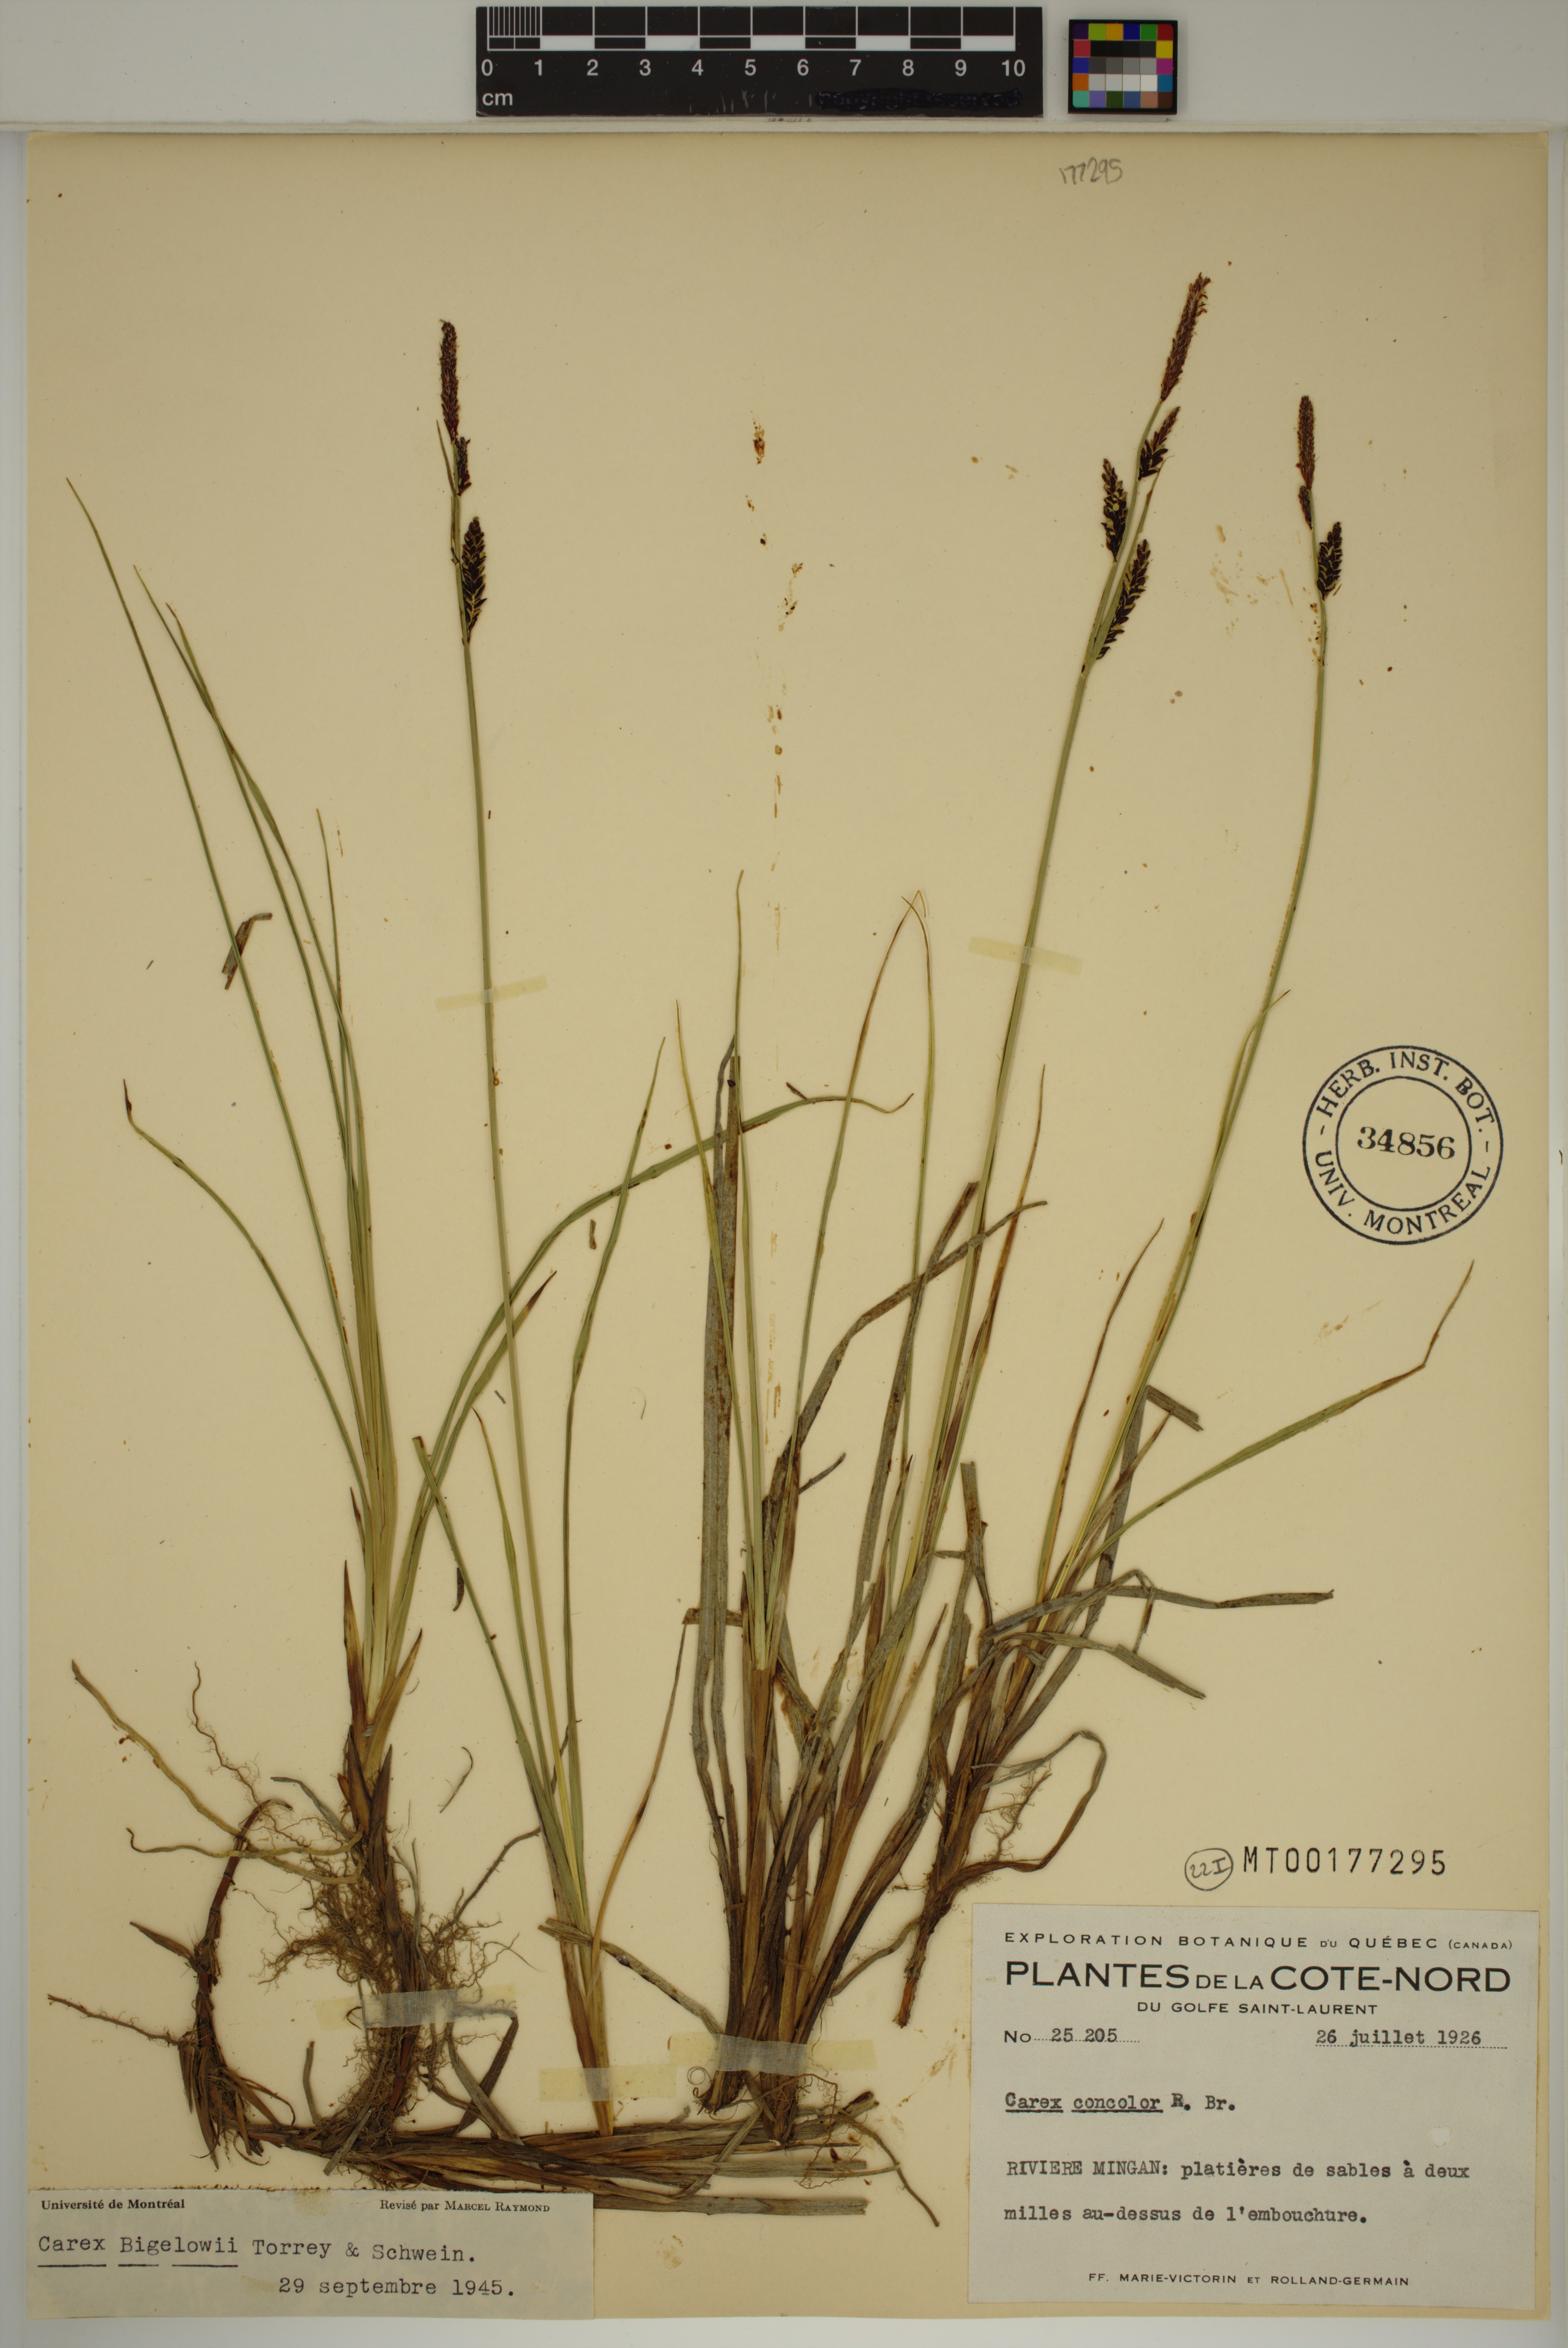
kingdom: Plantae
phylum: Tracheophyta
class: Liliopsida
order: Poales
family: Cyperaceae
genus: Carex
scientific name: Carex bigelowii
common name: Stiff sedge
